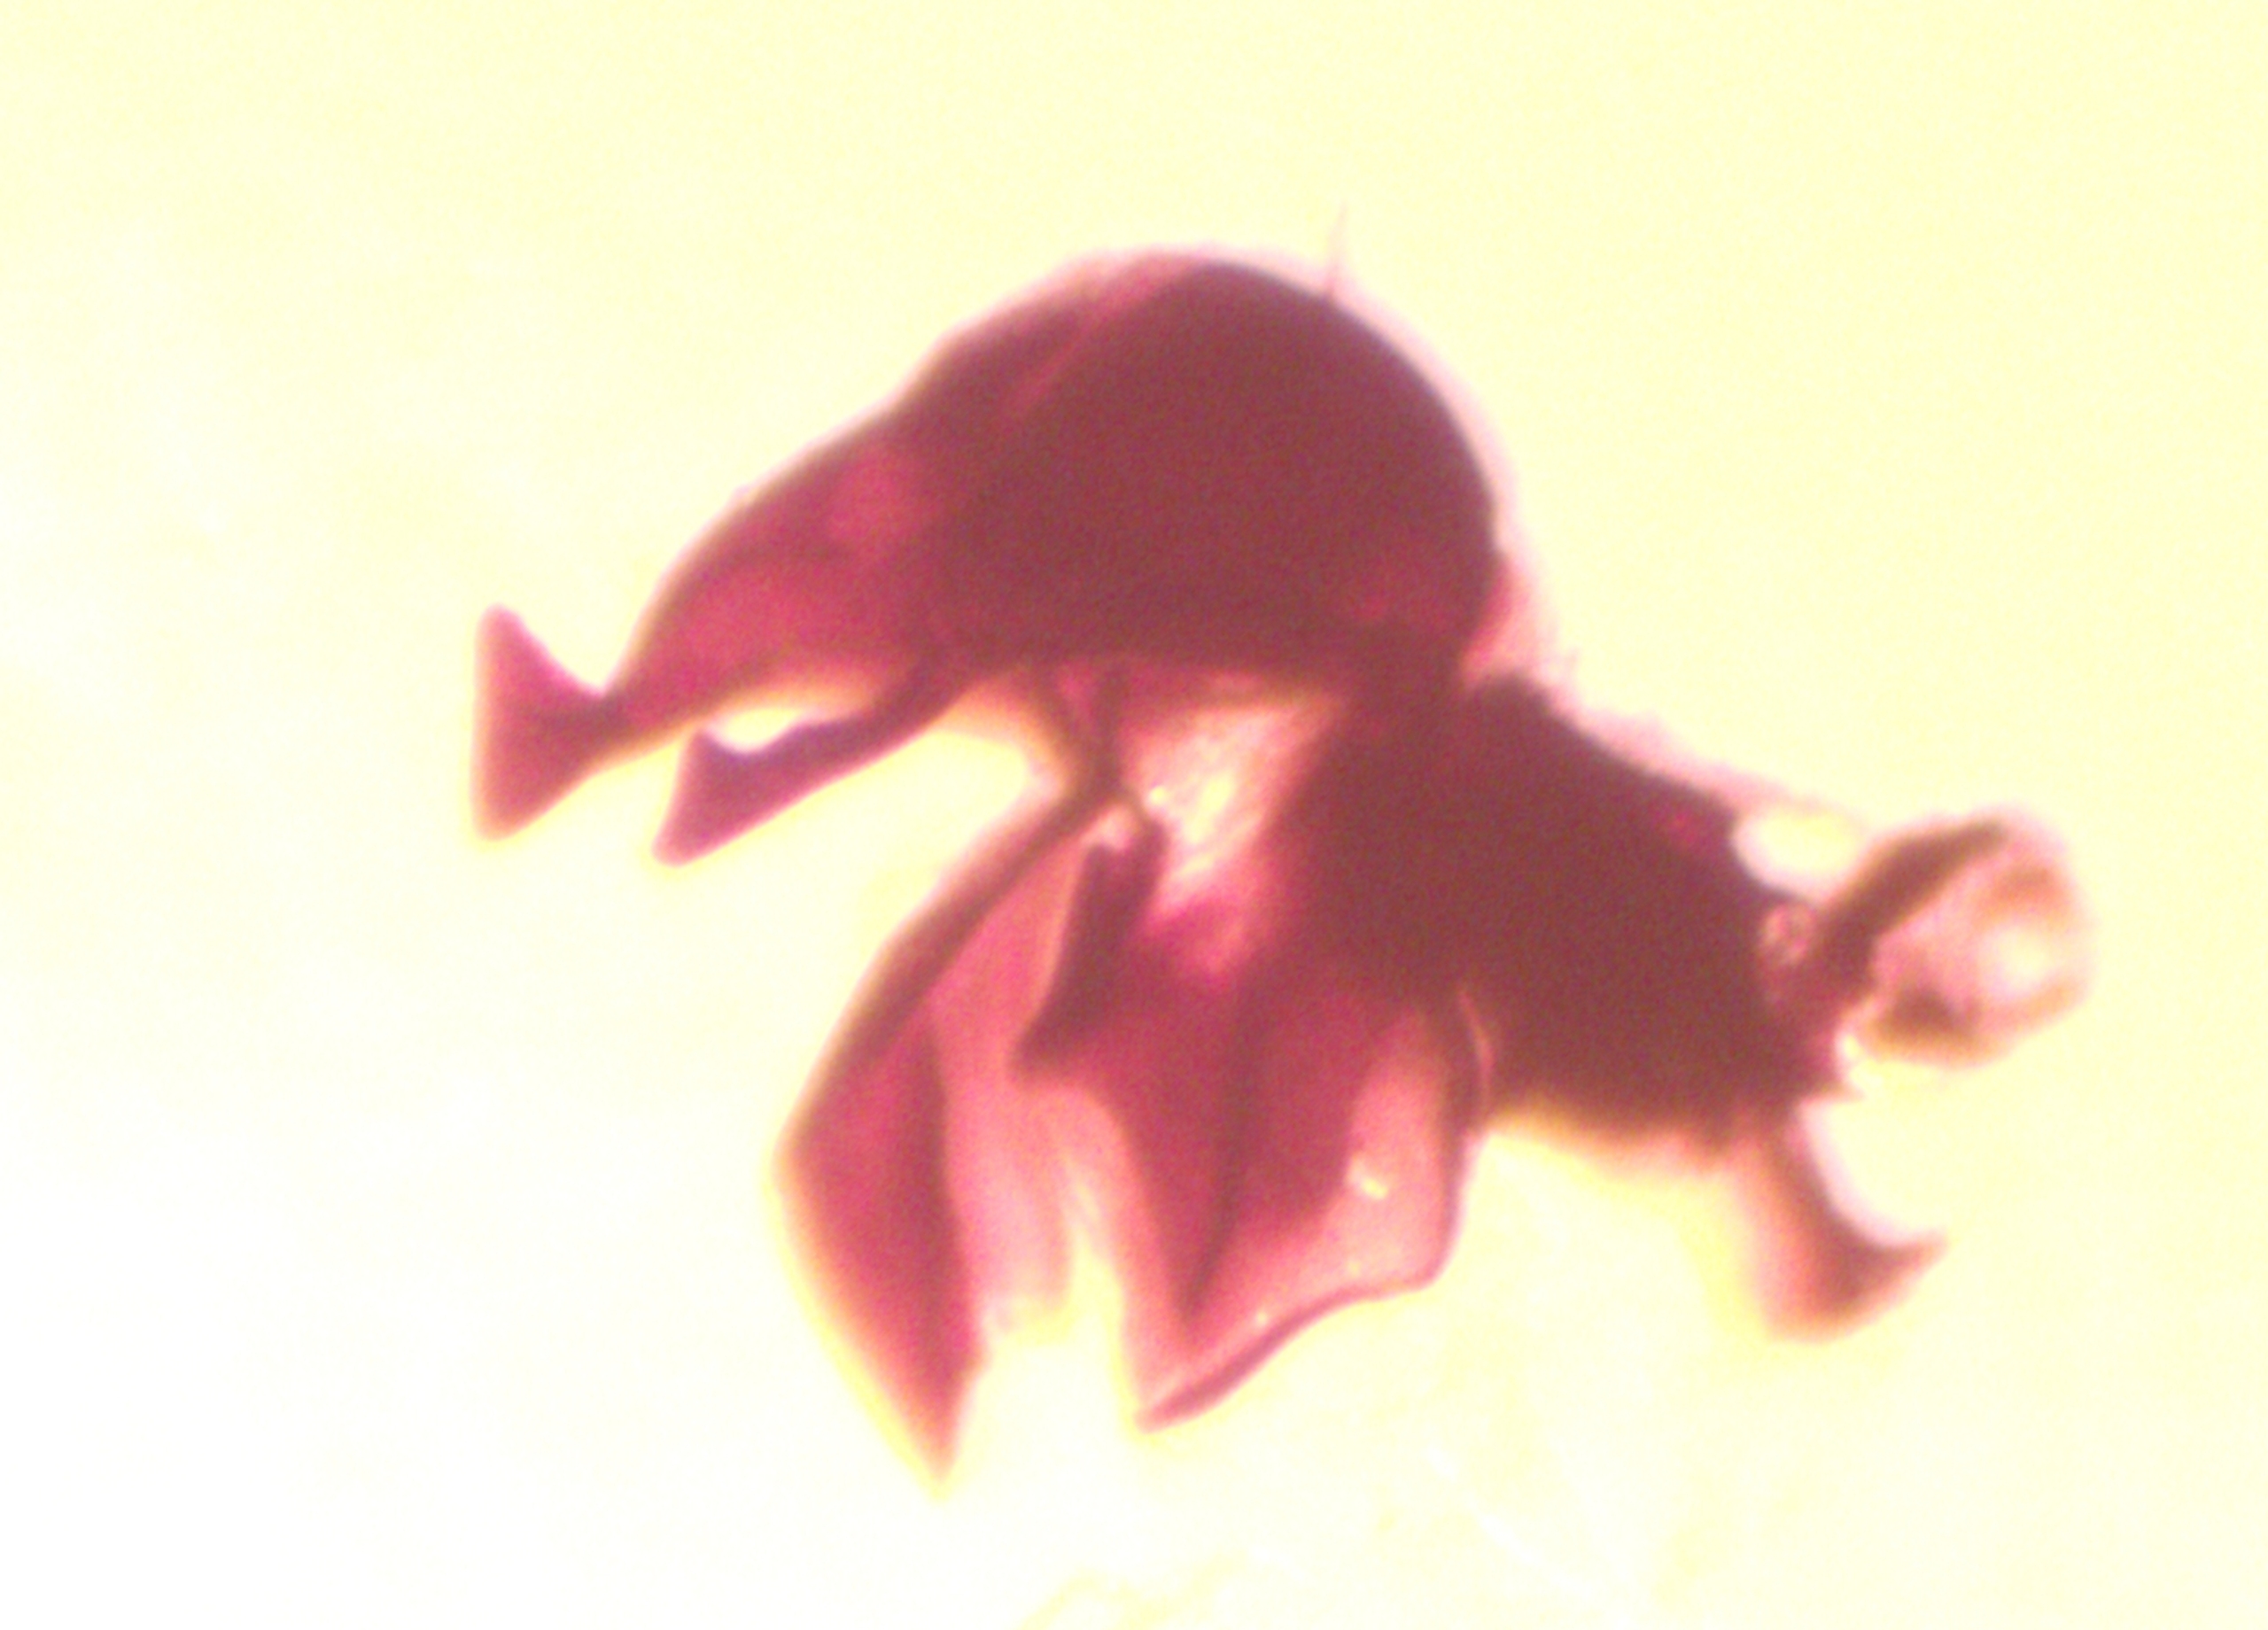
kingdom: Animalia
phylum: Arthropoda
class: Insecta
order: Diptera
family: Sepsidae
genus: Themira
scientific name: Themira gracilis
